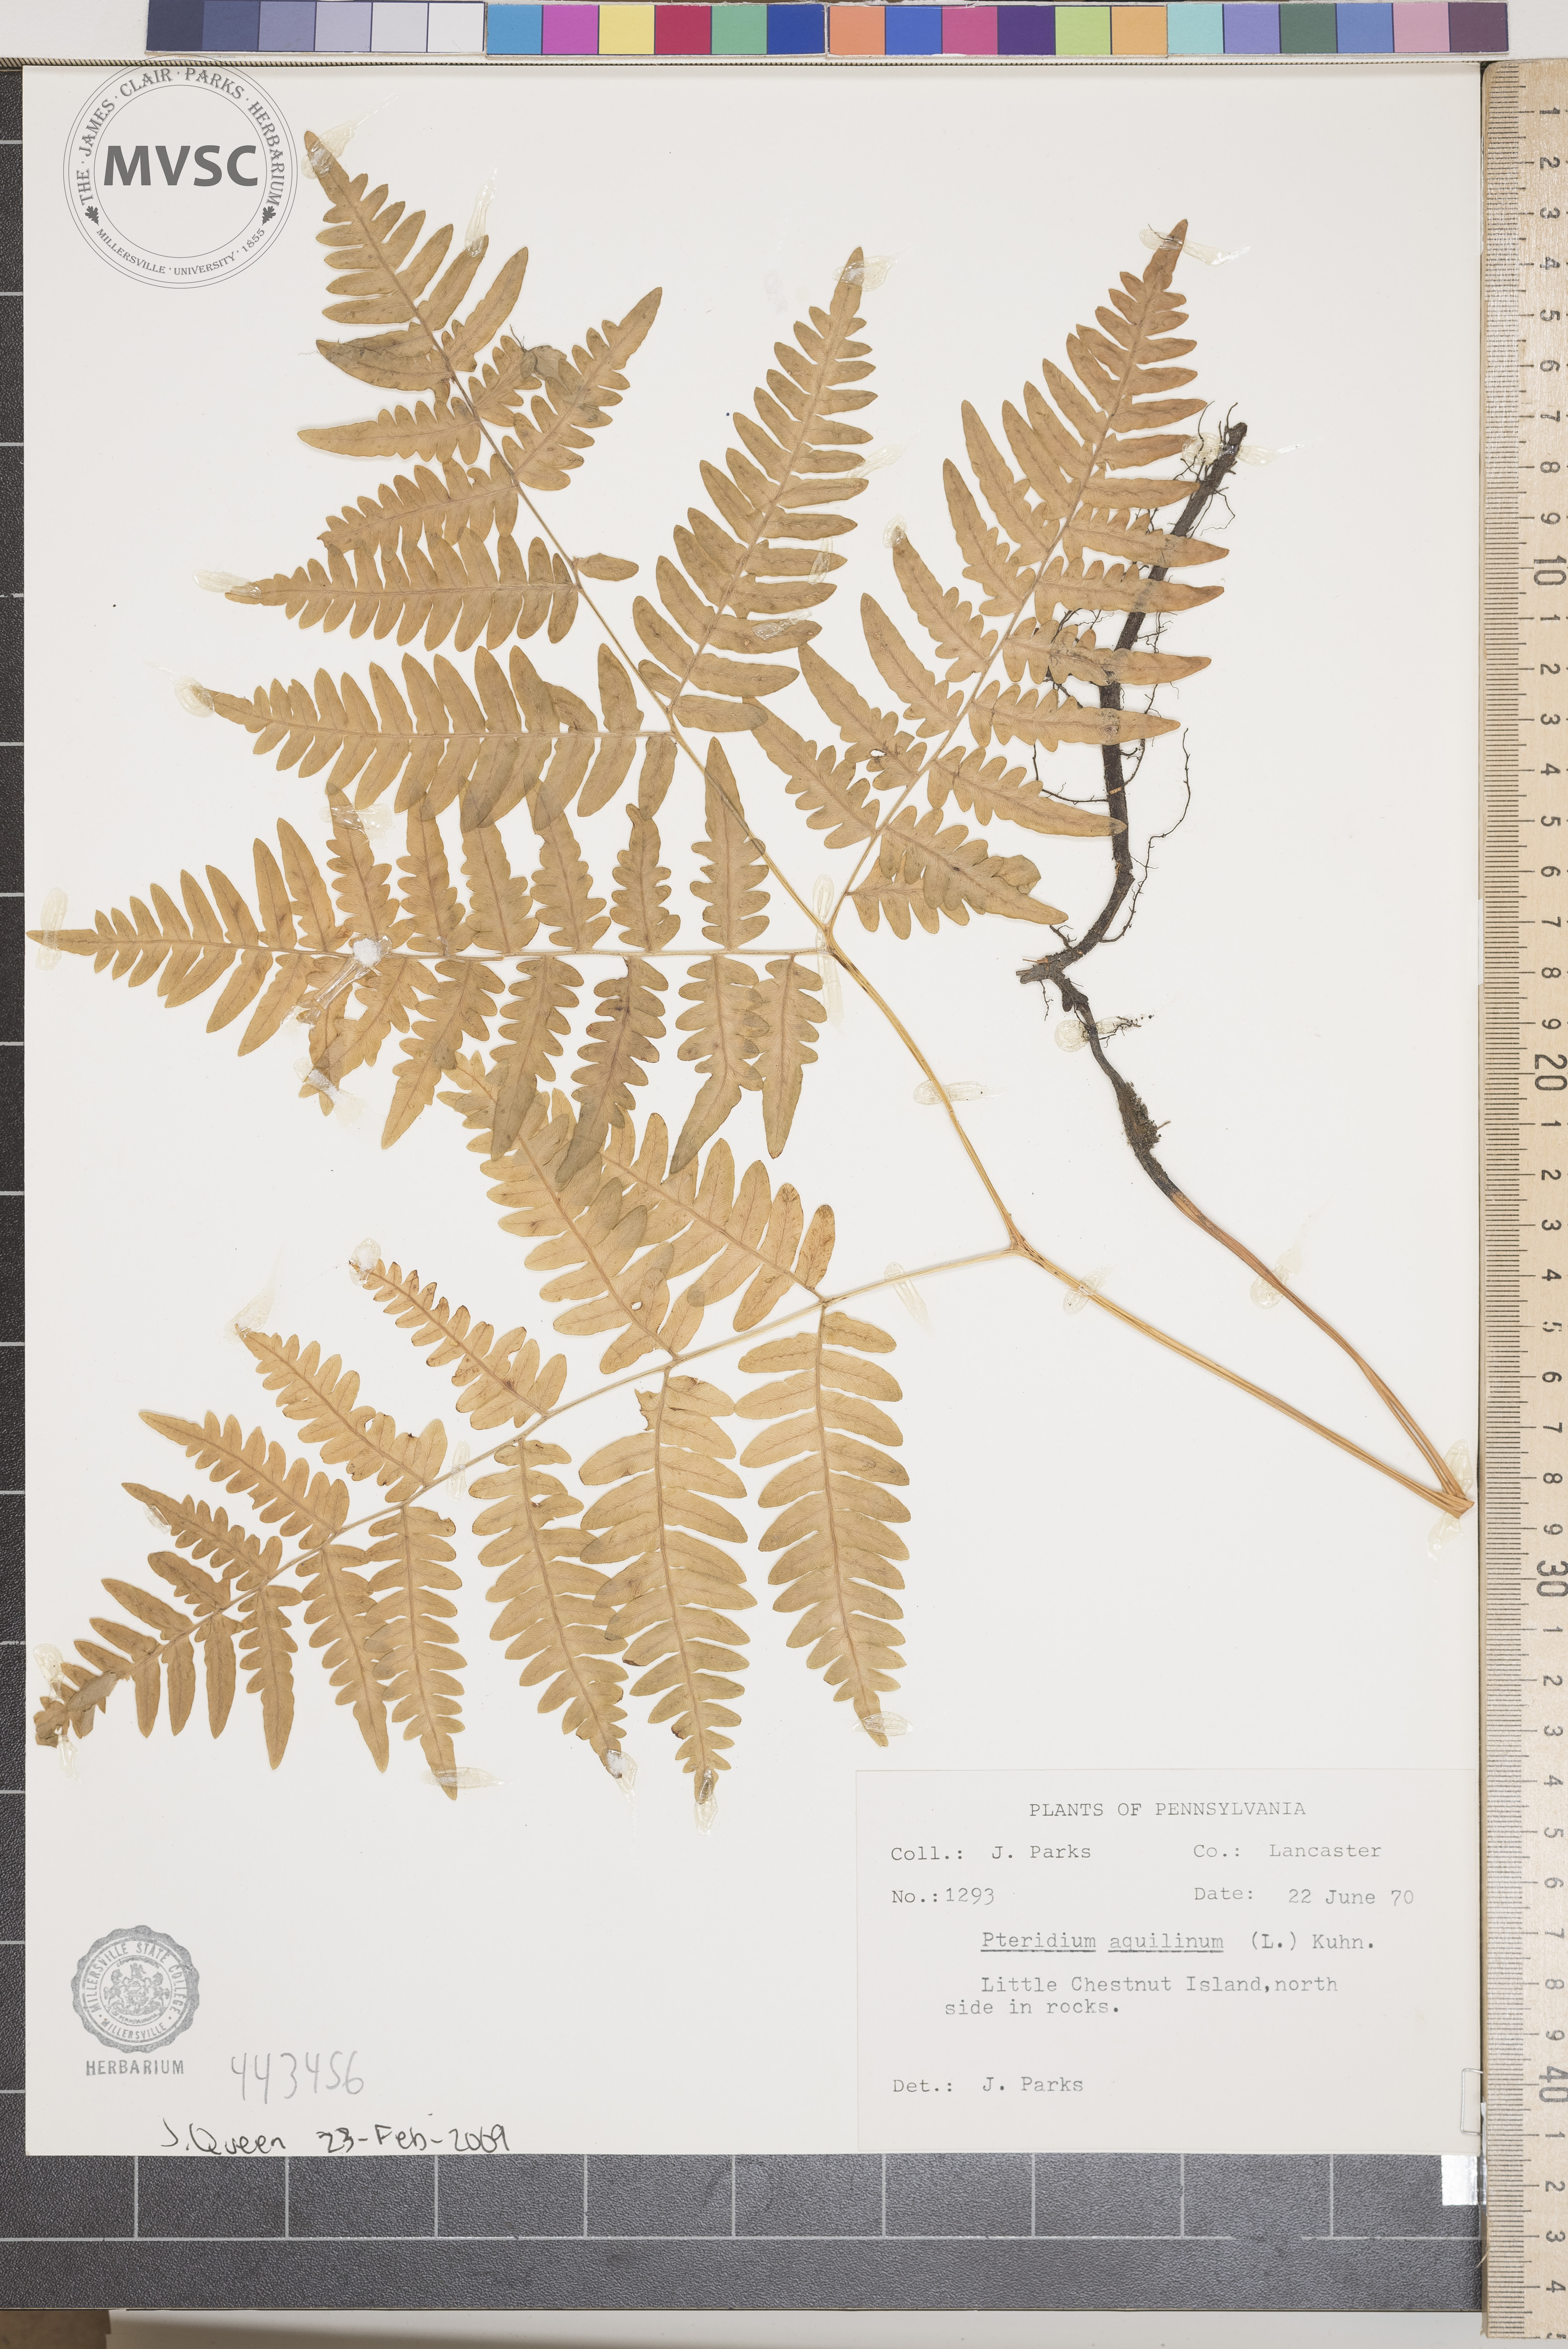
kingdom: Plantae
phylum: Tracheophyta
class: Polypodiopsida
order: Polypodiales
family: Dennstaedtiaceae
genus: Pteridium
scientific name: Pteridium aquilinum
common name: Bracken
